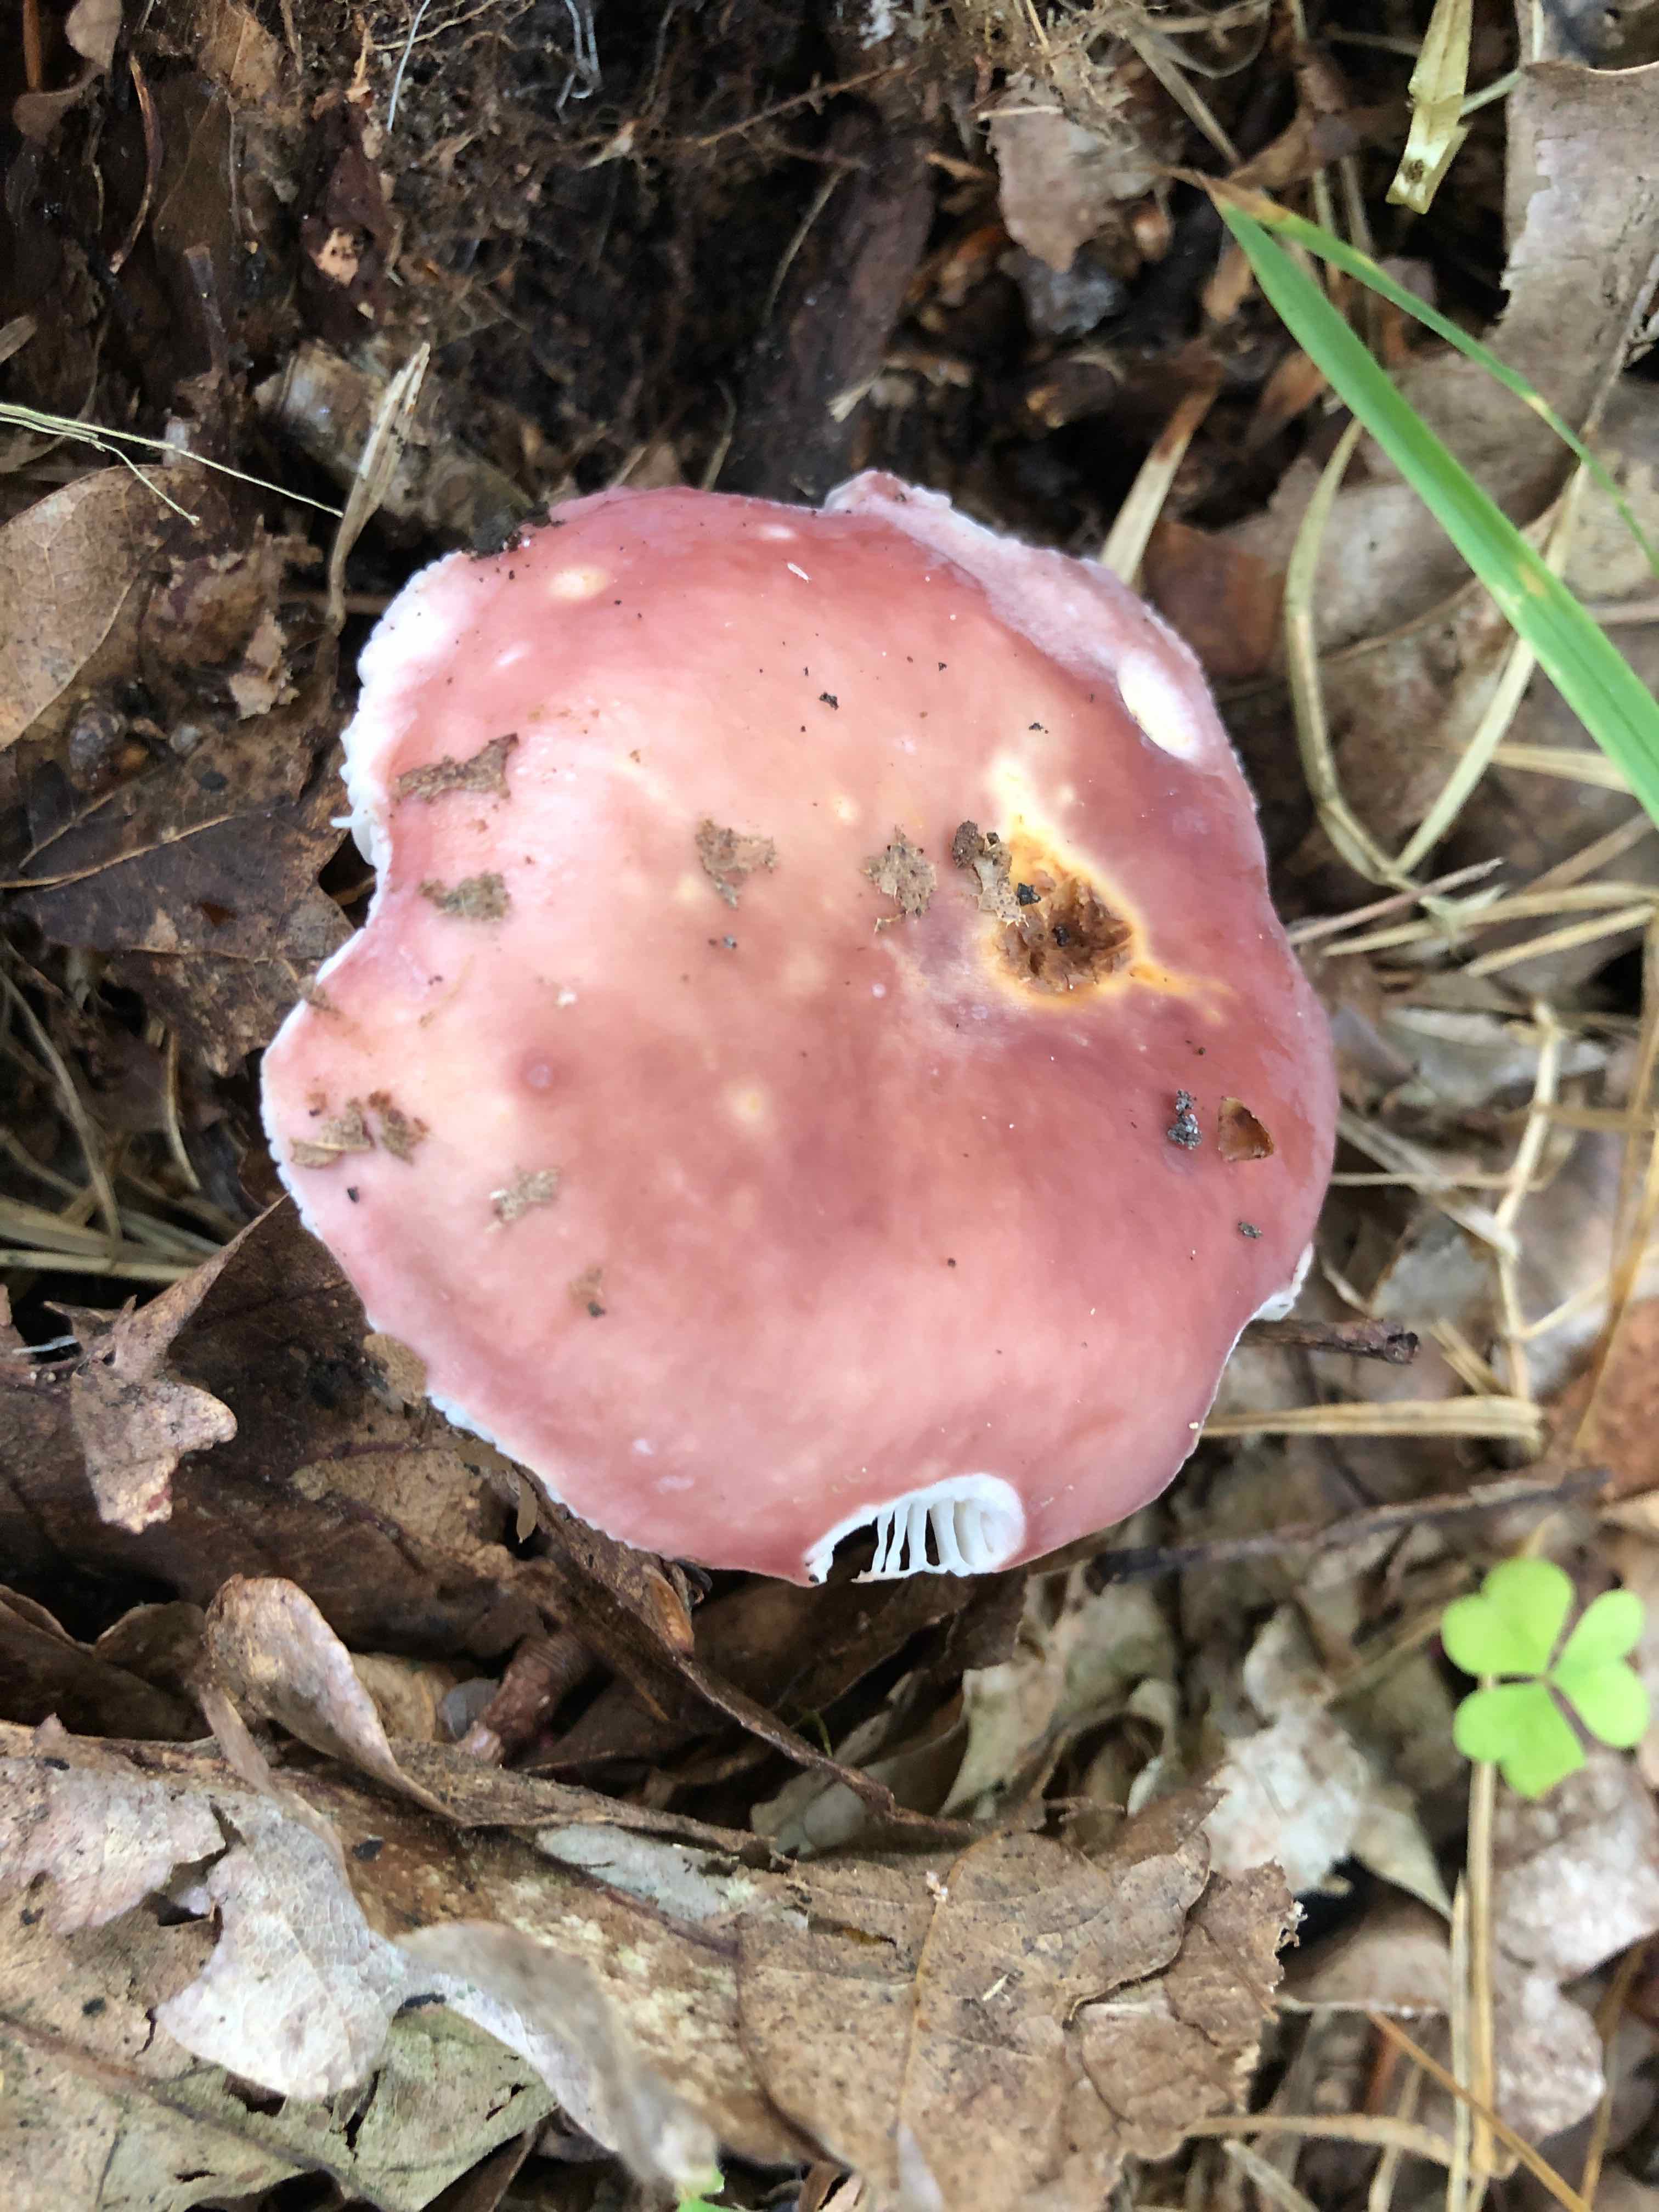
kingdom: Fungi
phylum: Basidiomycota
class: Agaricomycetes
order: Russulales
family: Russulaceae
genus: Russula
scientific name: Russula vesca
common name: spiselig skørhat
